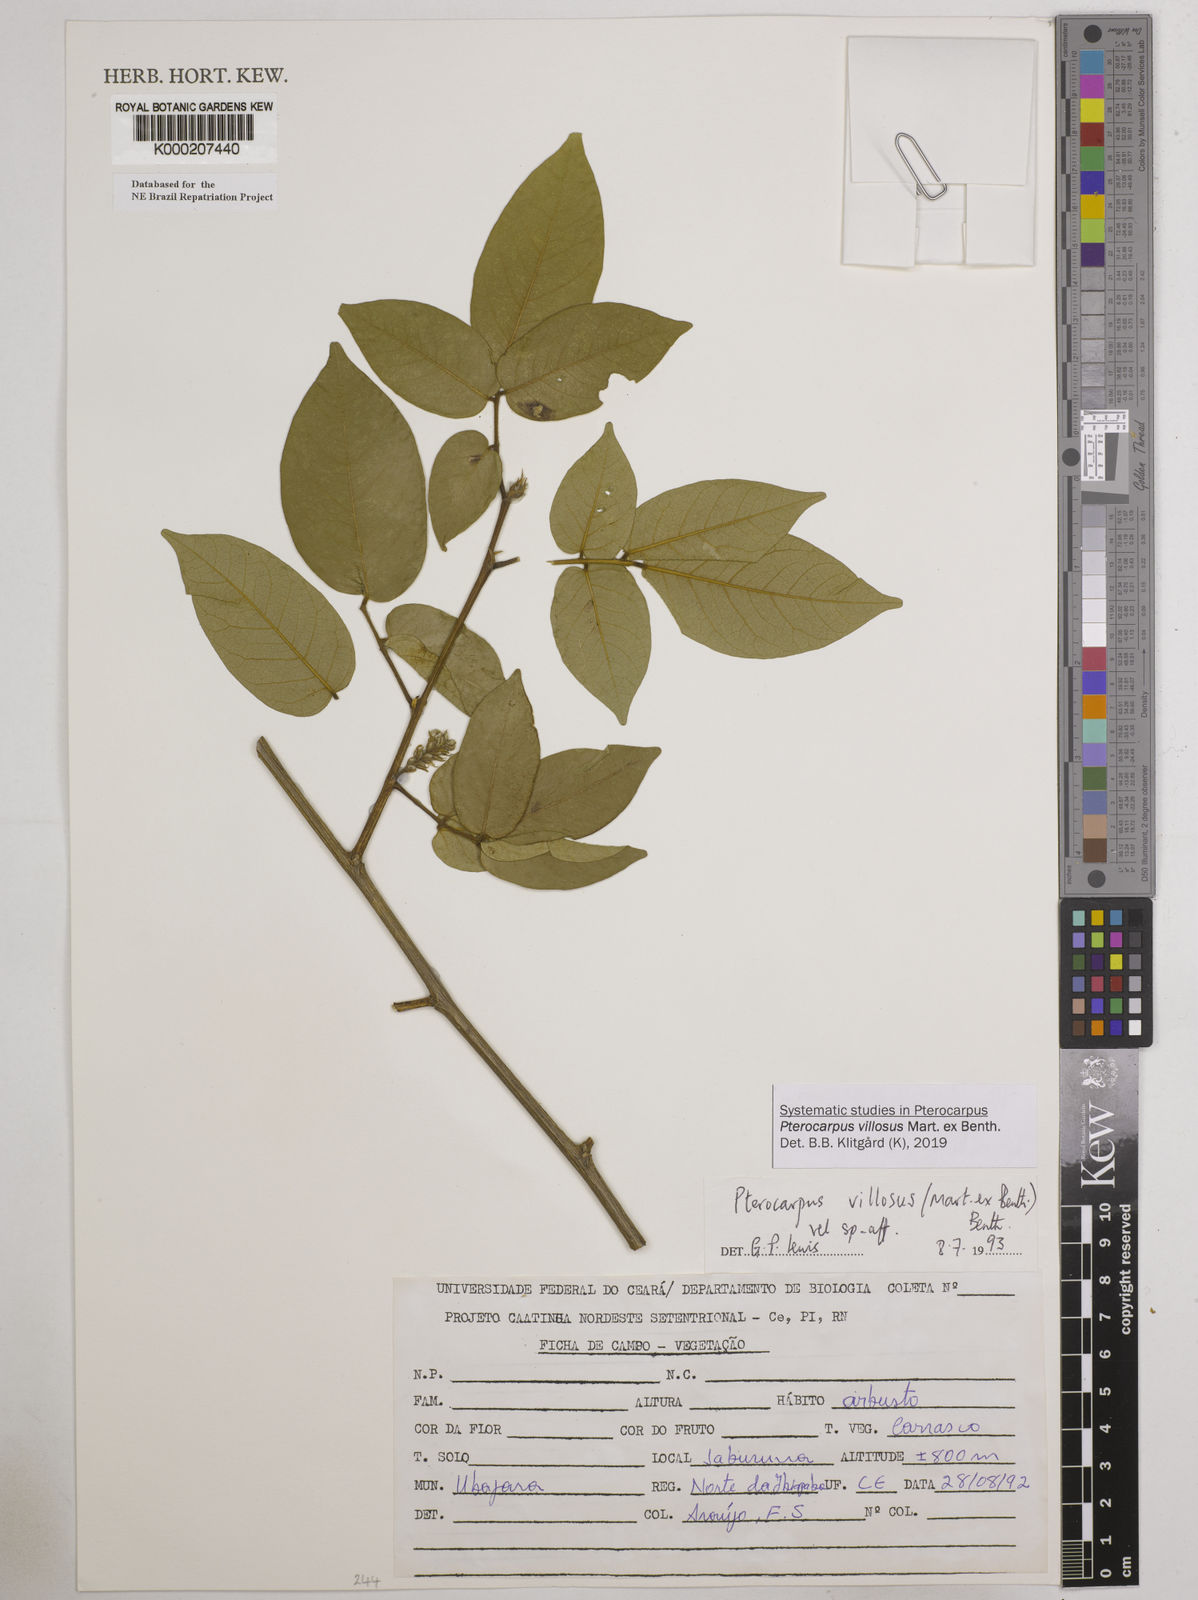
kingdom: Plantae
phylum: Tracheophyta
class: Magnoliopsida
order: Fabales
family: Fabaceae
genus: Pterocarpus
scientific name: Pterocarpus villosus
